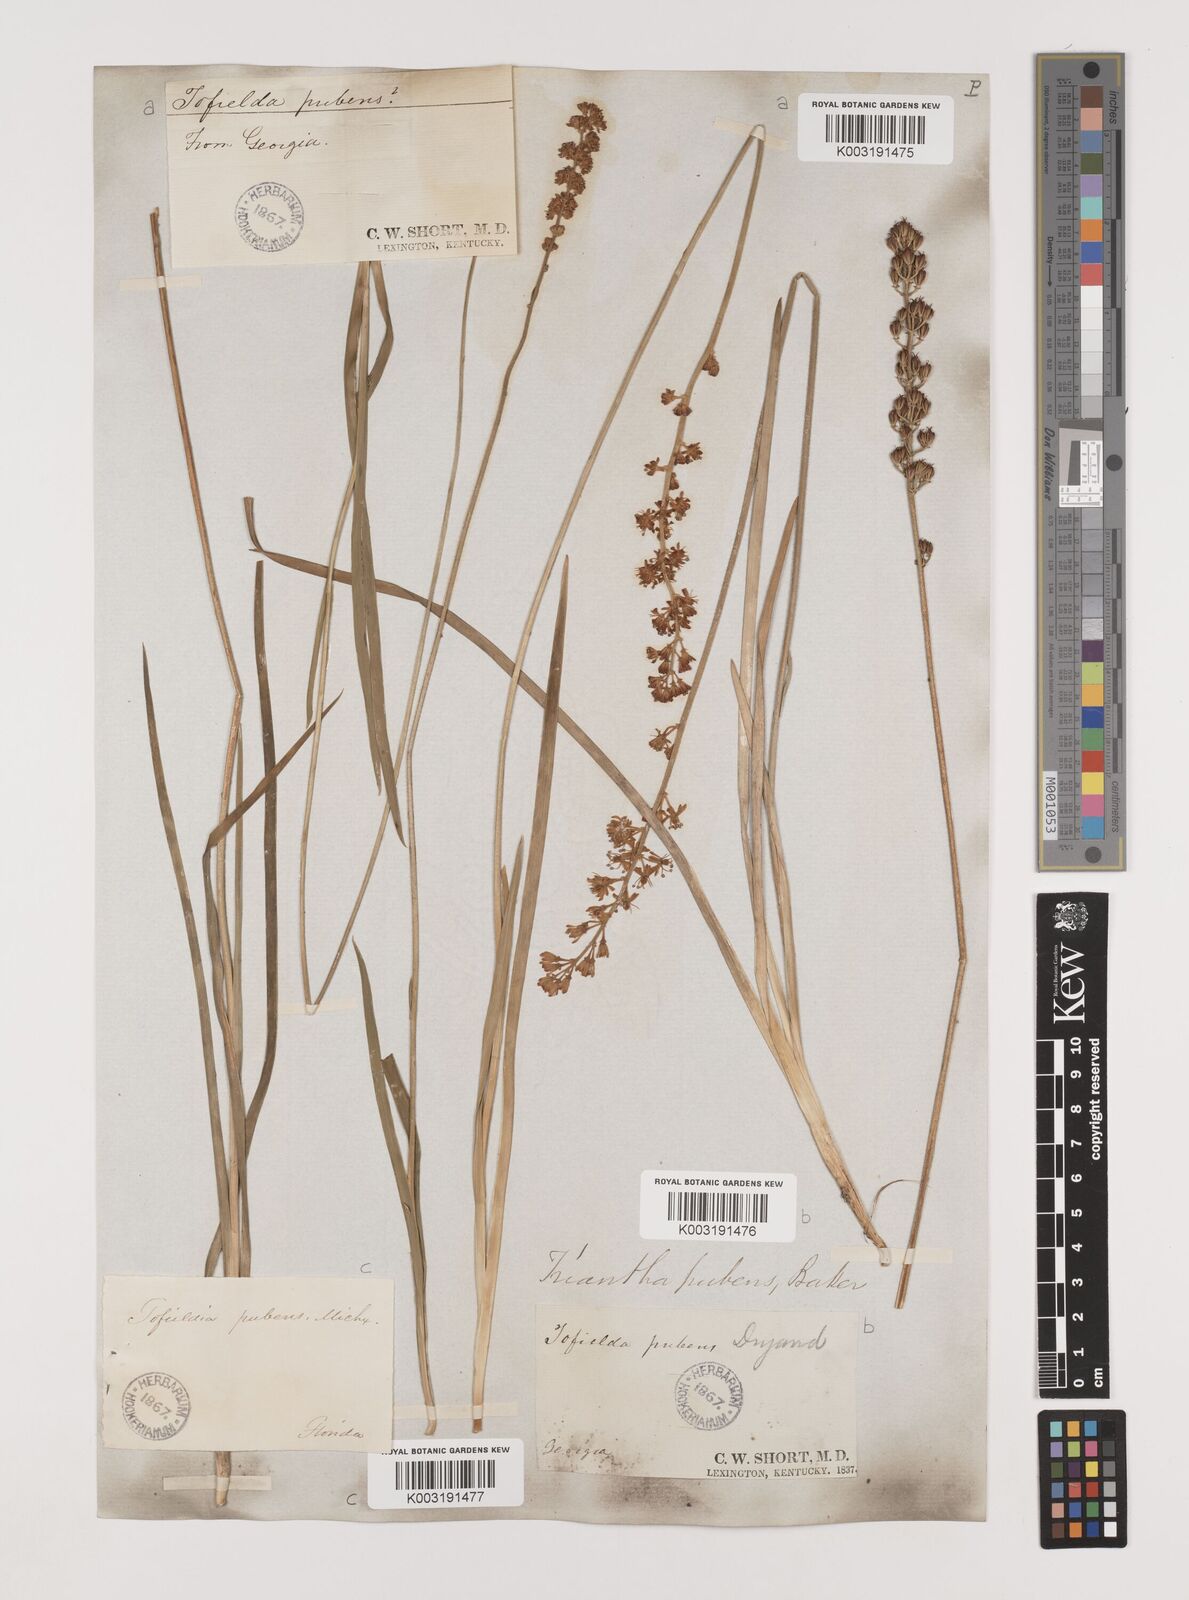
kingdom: Plantae
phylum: Tracheophyta
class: Liliopsida
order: Alismatales
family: Tofieldiaceae
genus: Triantha
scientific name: Triantha racemosa
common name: Coastal false asphodel
